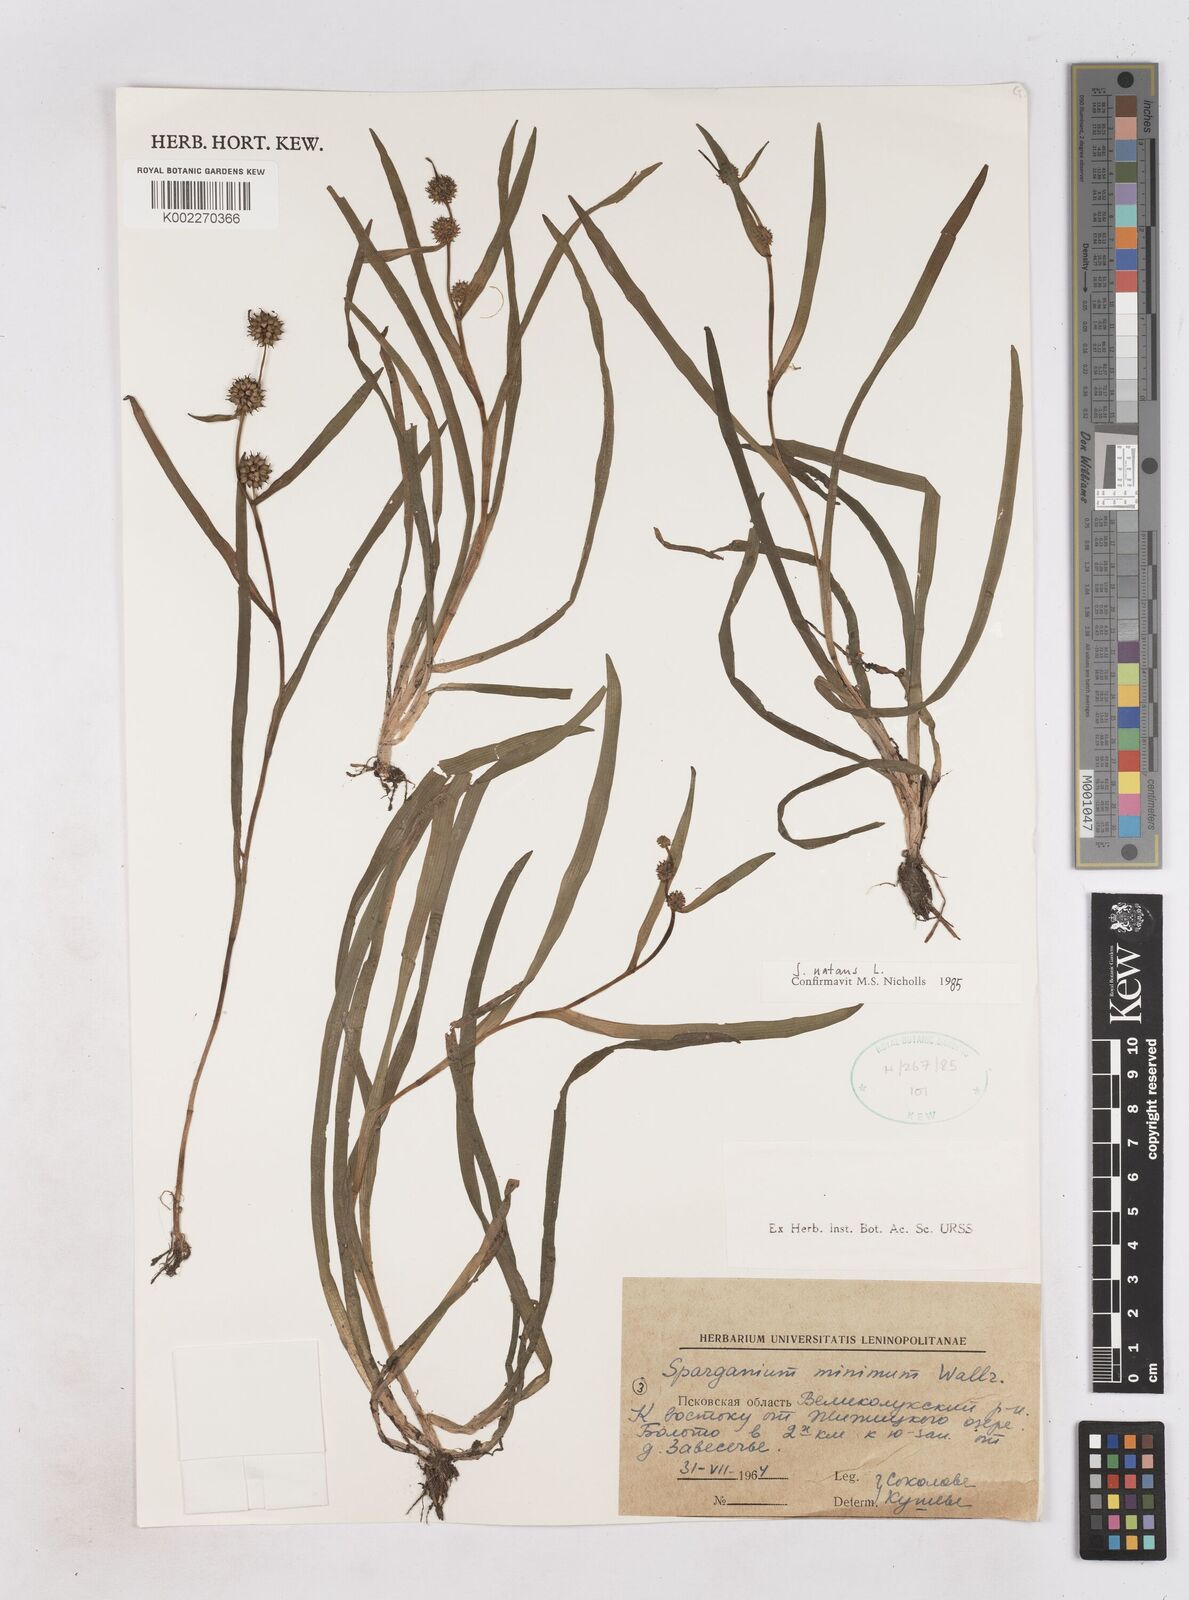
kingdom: Plantae
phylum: Tracheophyta
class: Liliopsida
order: Poales
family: Typhaceae
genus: Sparganium
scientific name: Sparganium natans
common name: Least bur-reed
